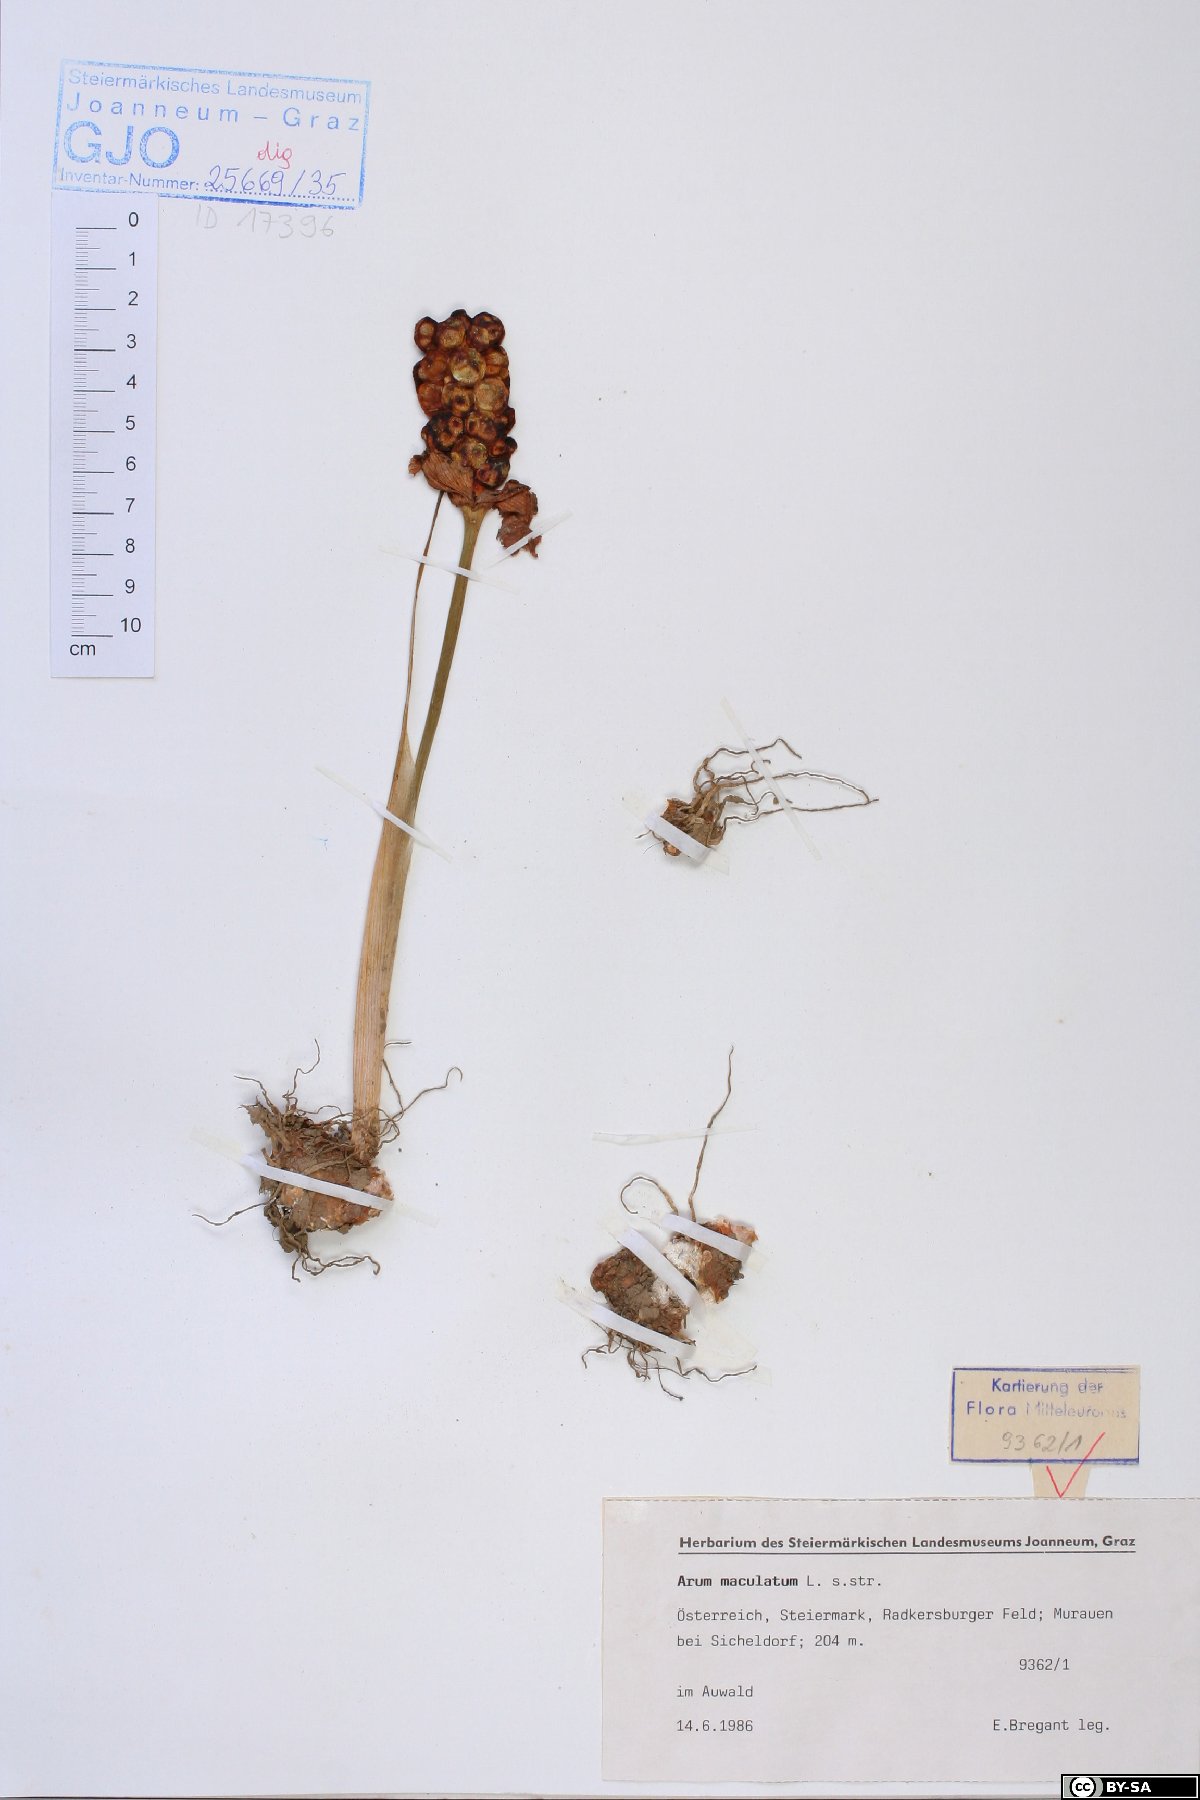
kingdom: Plantae
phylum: Tracheophyta
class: Liliopsida
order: Alismatales
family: Araceae
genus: Arum
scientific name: Arum maculatum
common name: Lords-and-ladies
